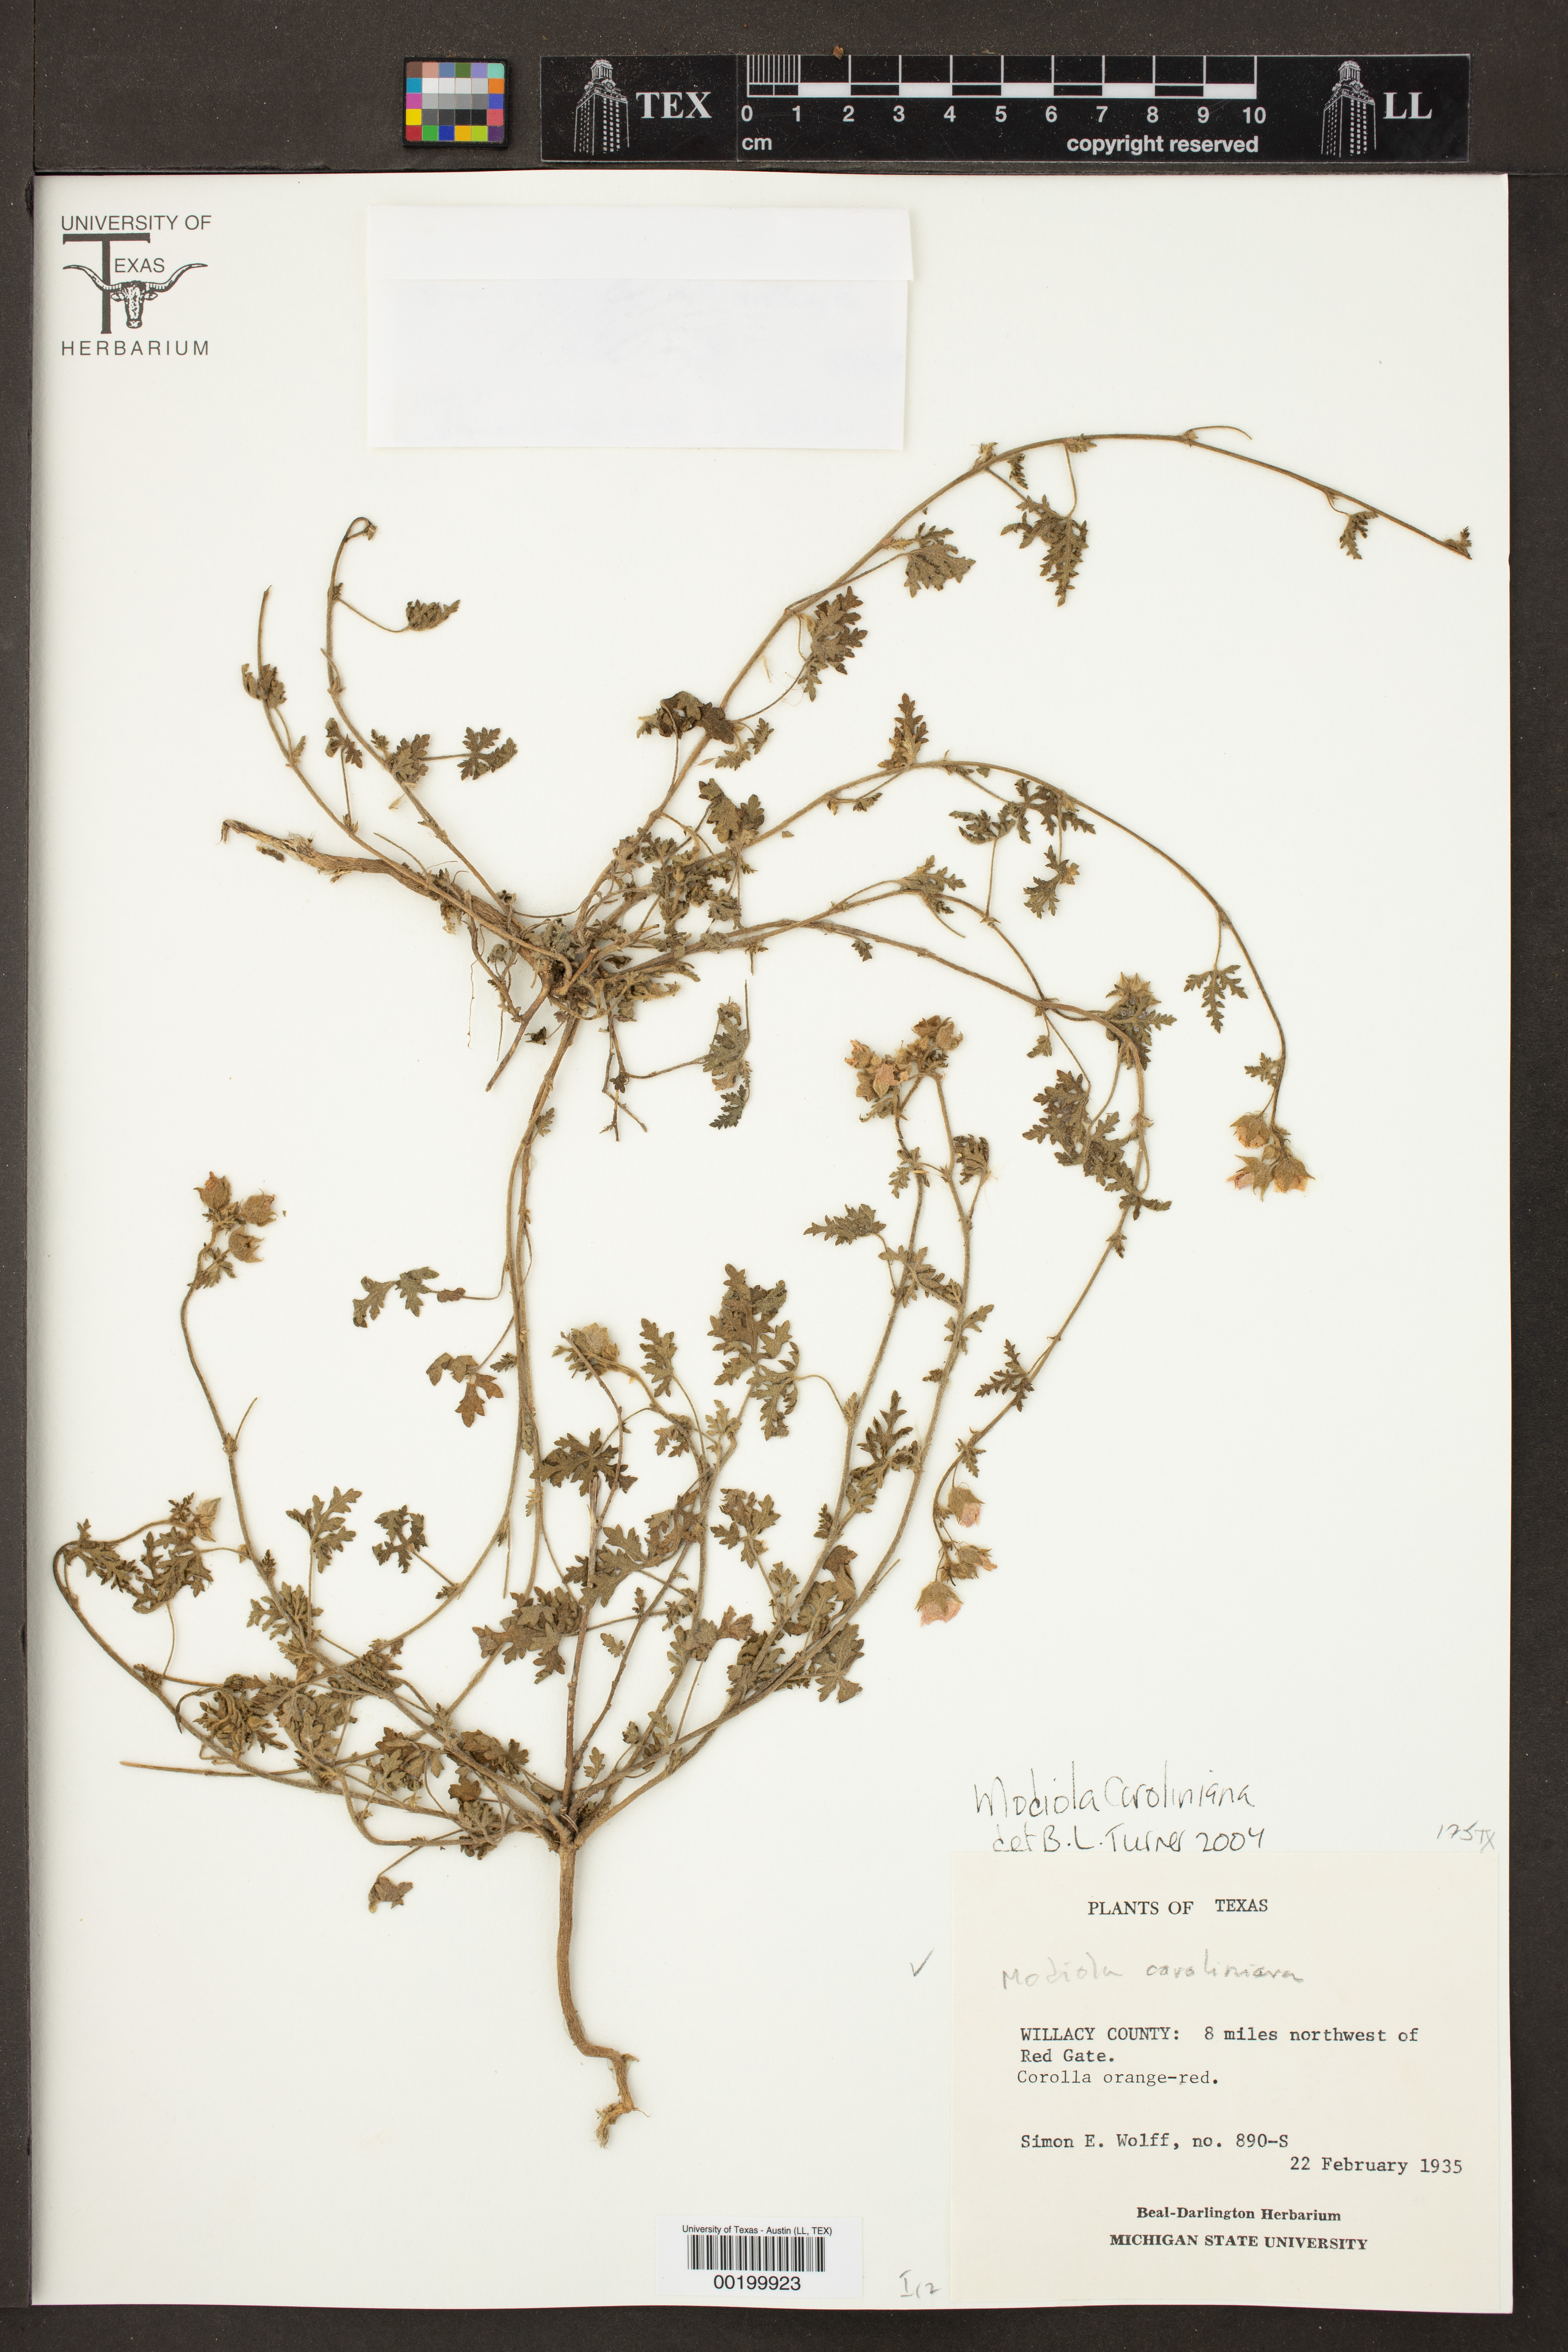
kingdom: Plantae
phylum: Tracheophyta
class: Magnoliopsida
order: Malvales
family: Malvaceae
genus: Modiola
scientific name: Modiola caroliniana
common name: Carolina bristlemallow
